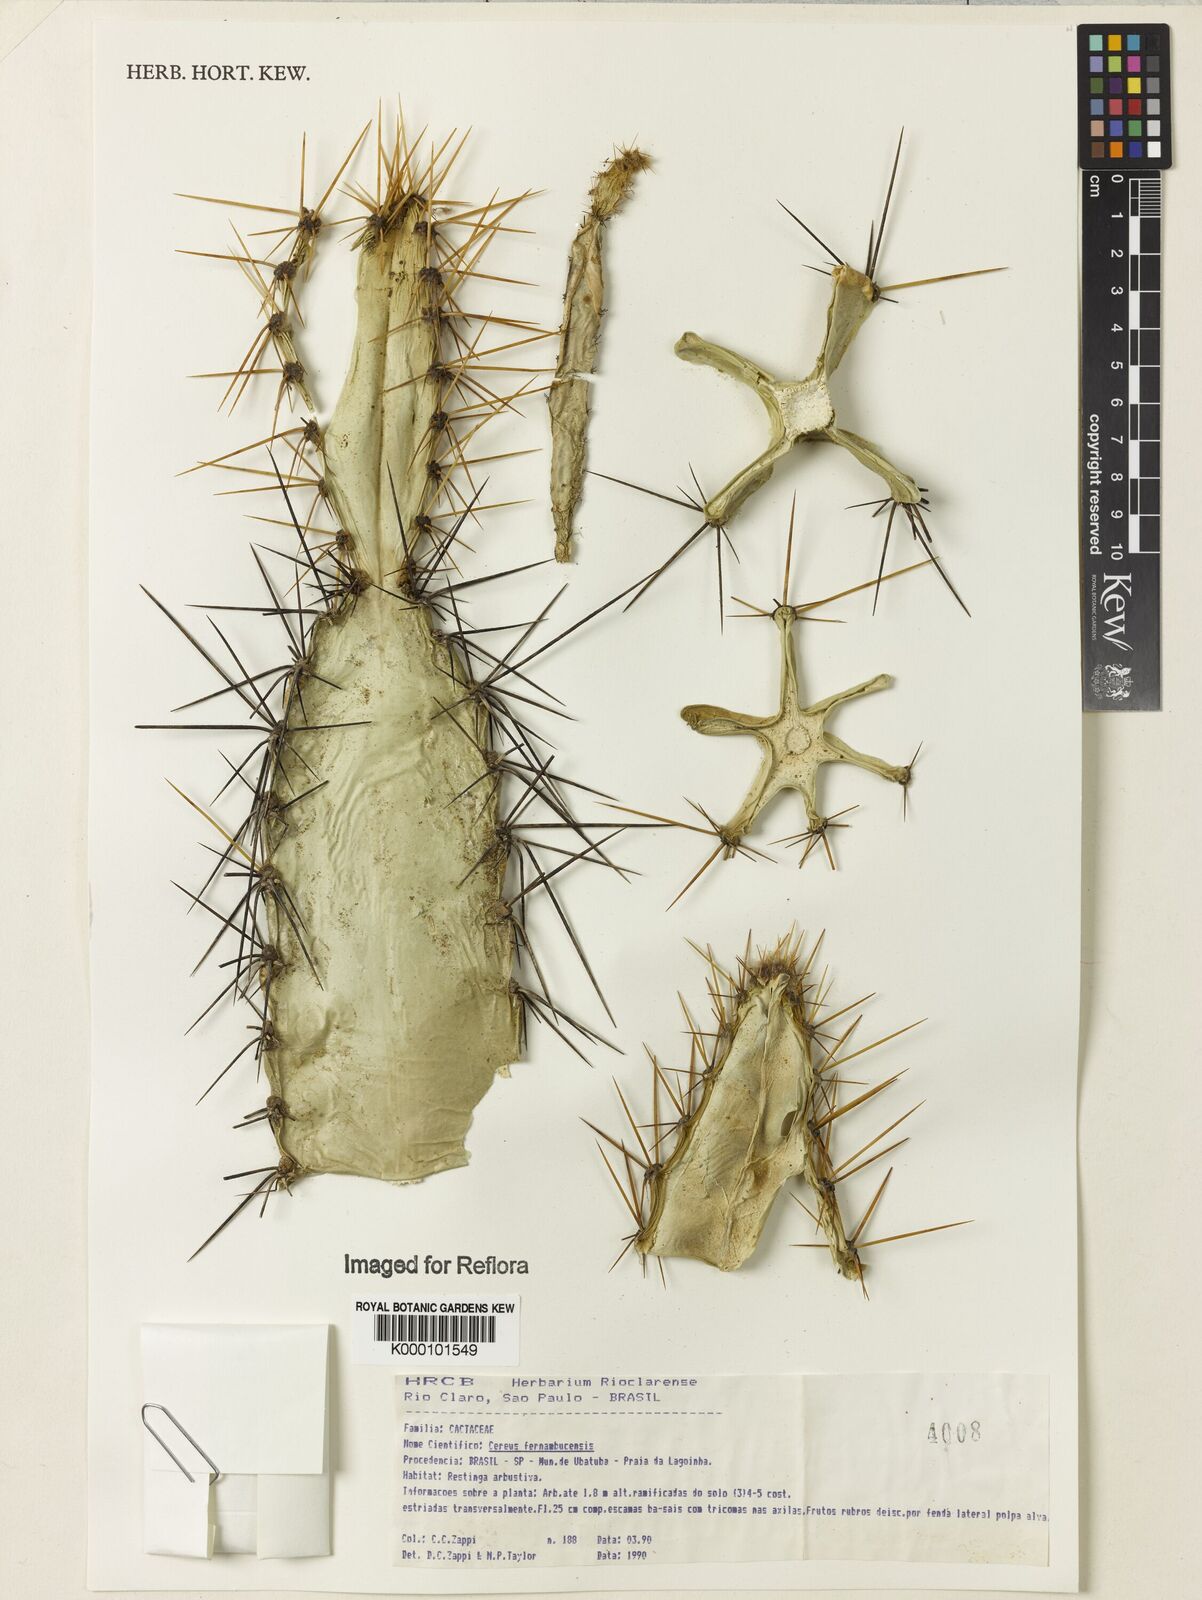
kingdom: Plantae
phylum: Tracheophyta
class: Magnoliopsida
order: Caryophyllales
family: Cactaceae
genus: Pereskia
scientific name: Pereskia violacea
